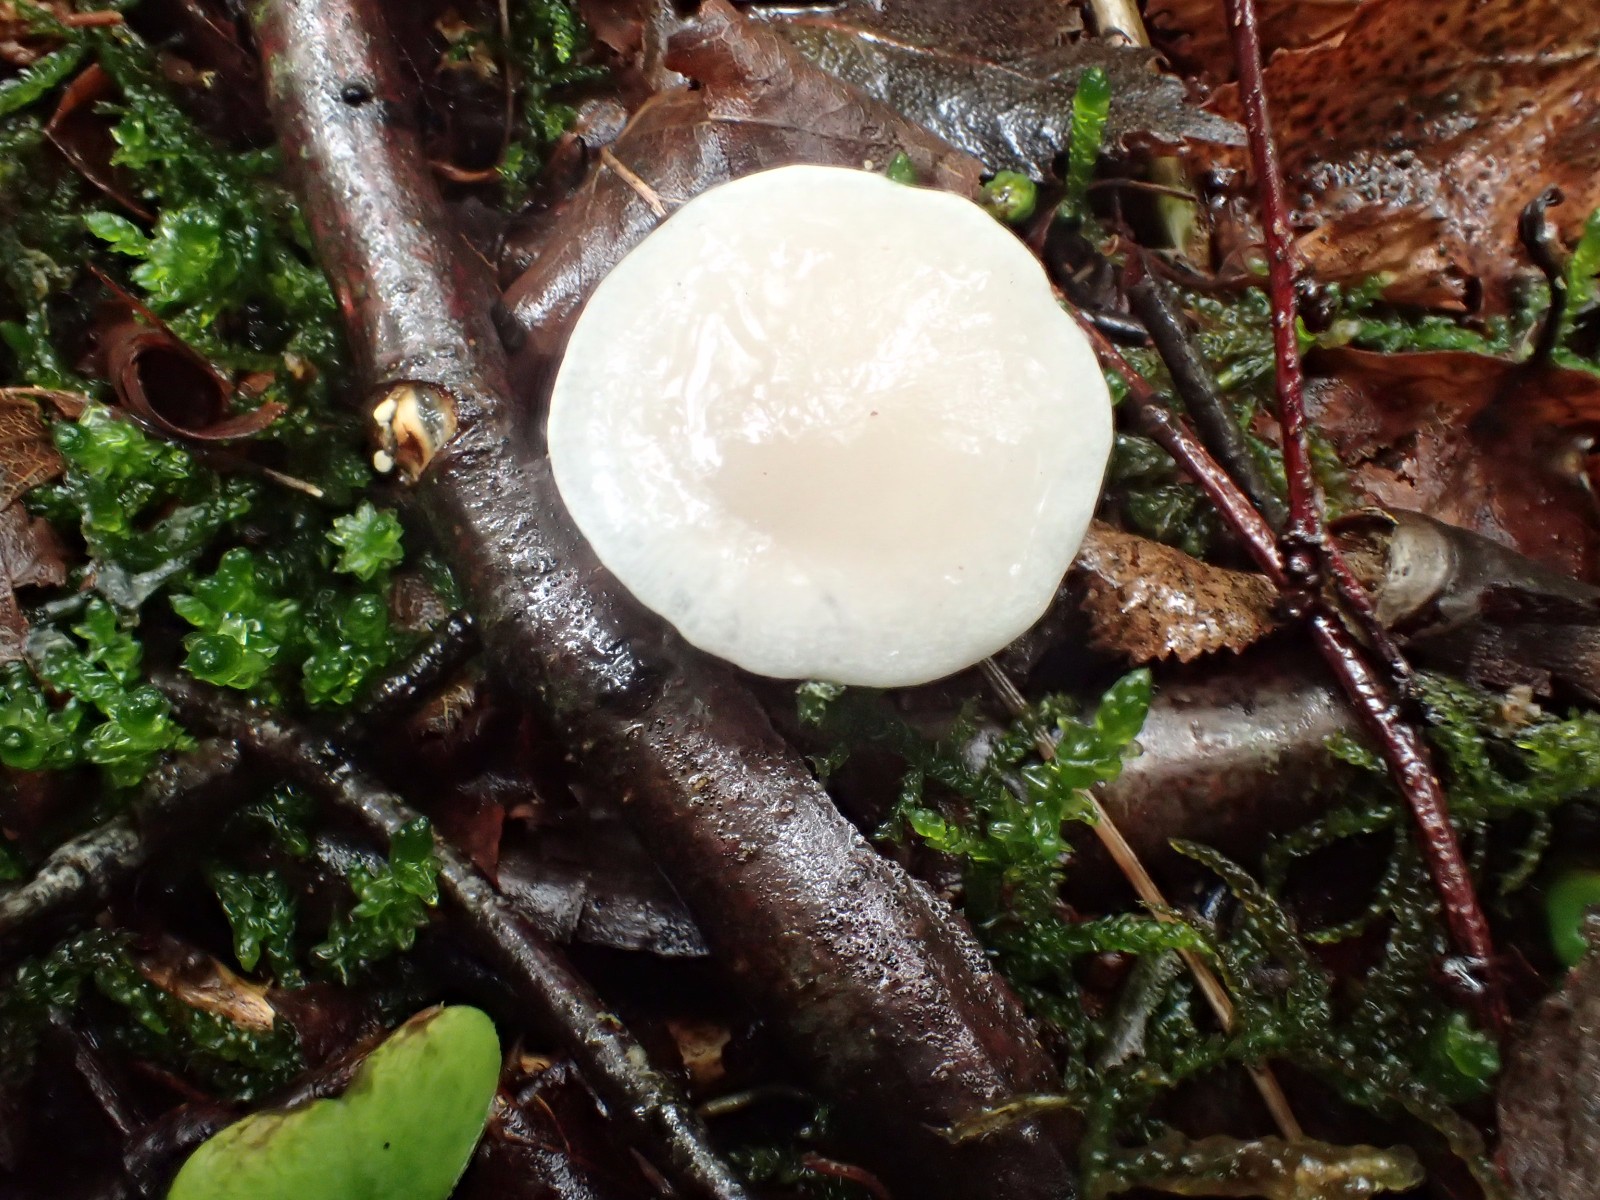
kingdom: Fungi
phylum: Basidiomycota
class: Agaricomycetes
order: Agaricales
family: Pleurotaceae
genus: Pleurotus
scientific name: Pleurotus ostreatus
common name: Oyster mushroom
